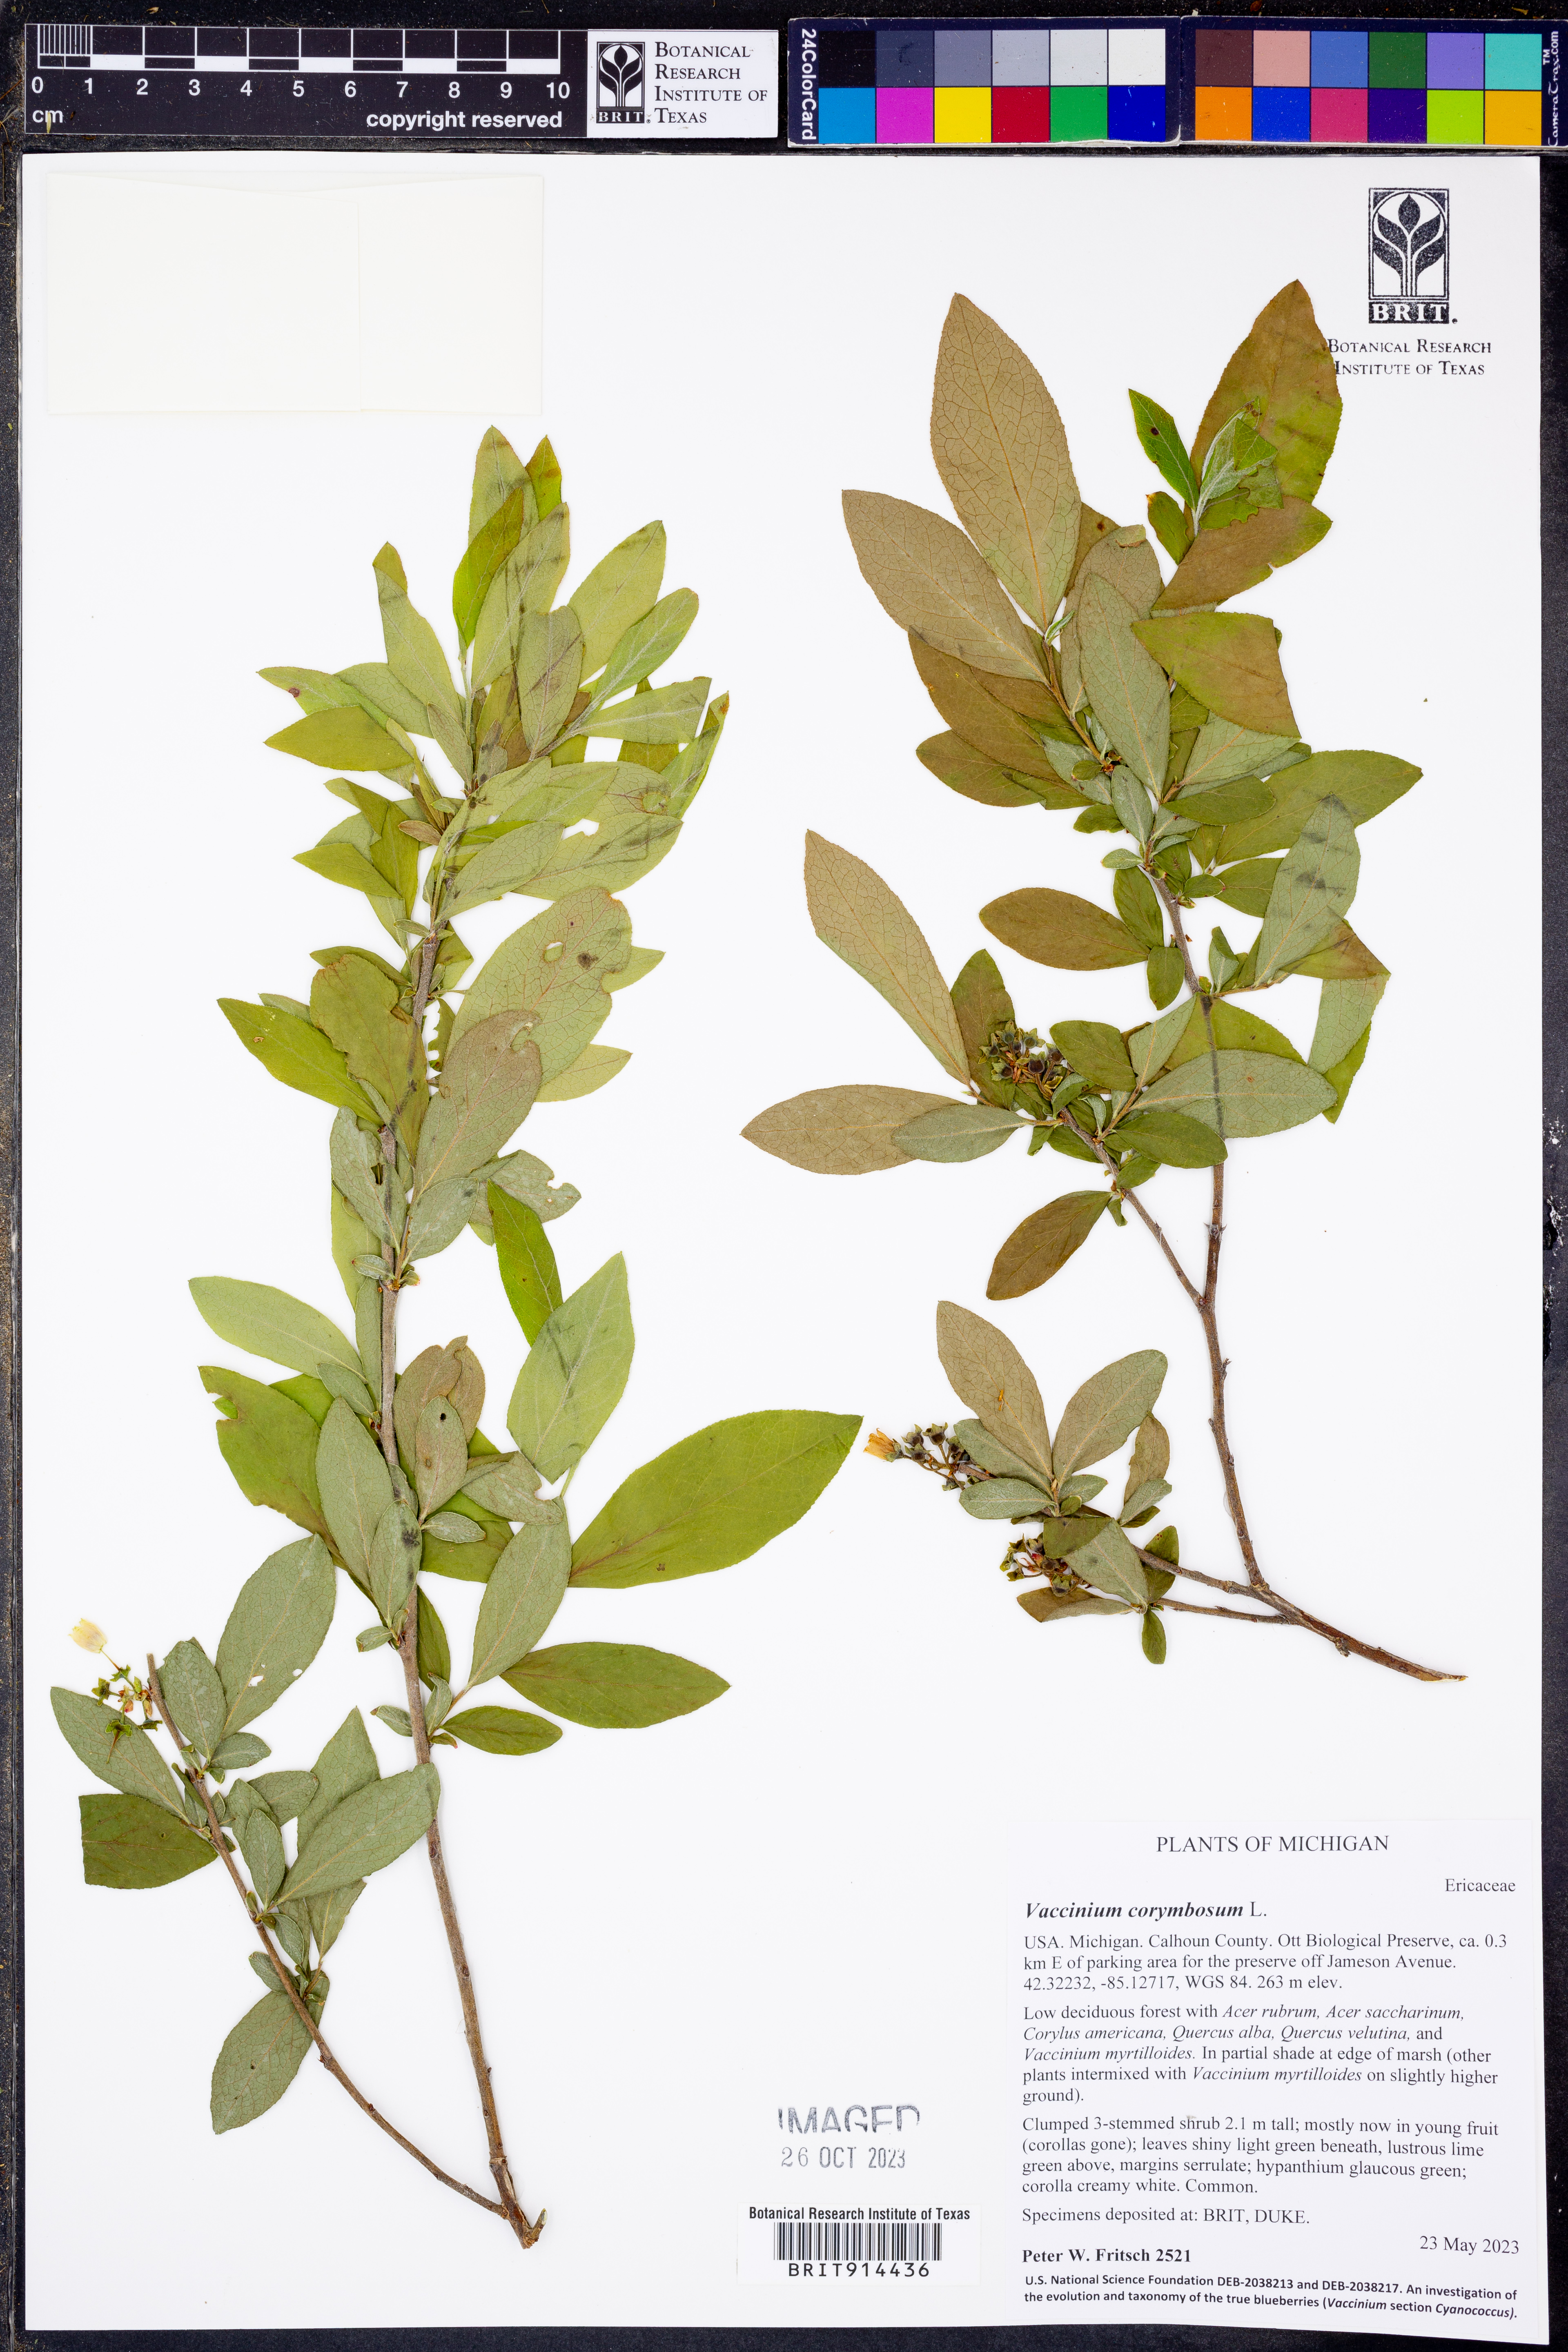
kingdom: Plantae
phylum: Tracheophyta
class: Magnoliopsida
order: Ericales
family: Ericaceae
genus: Vaccinium
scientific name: Vaccinium corymbosum
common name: Blueberry
